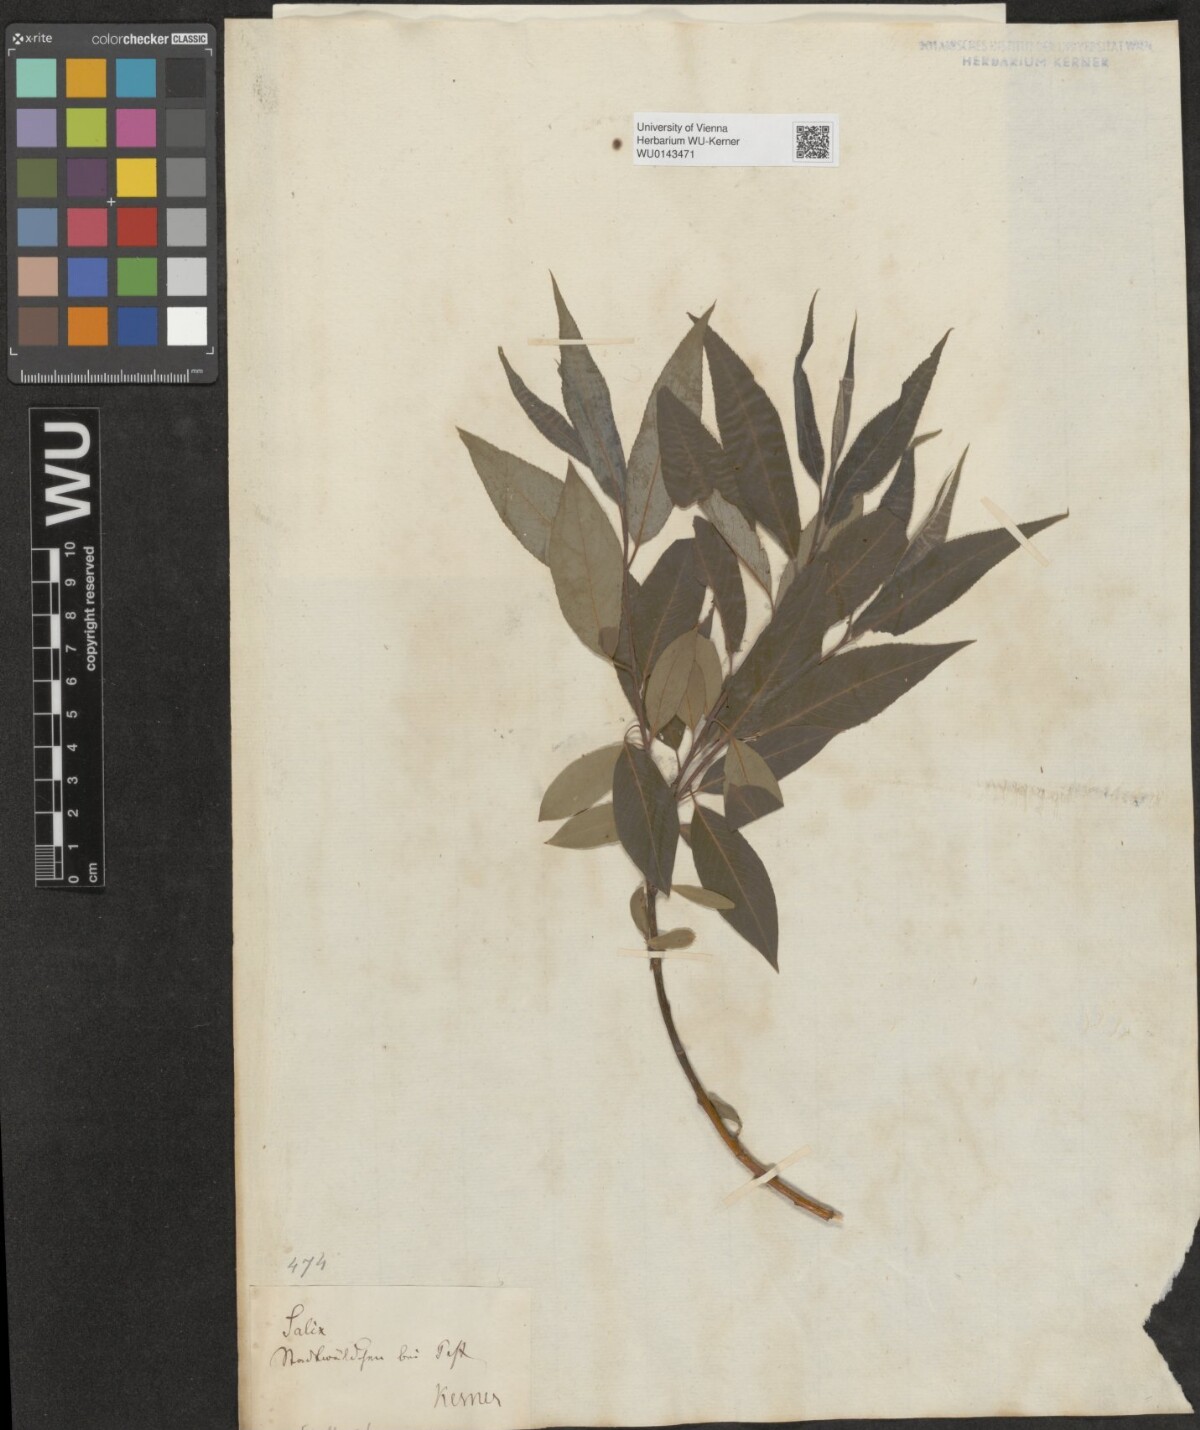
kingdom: Plantae
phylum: Tracheophyta
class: Magnoliopsida
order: Malpighiales
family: Salicaceae
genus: Salix
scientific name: Salix subtriandra
